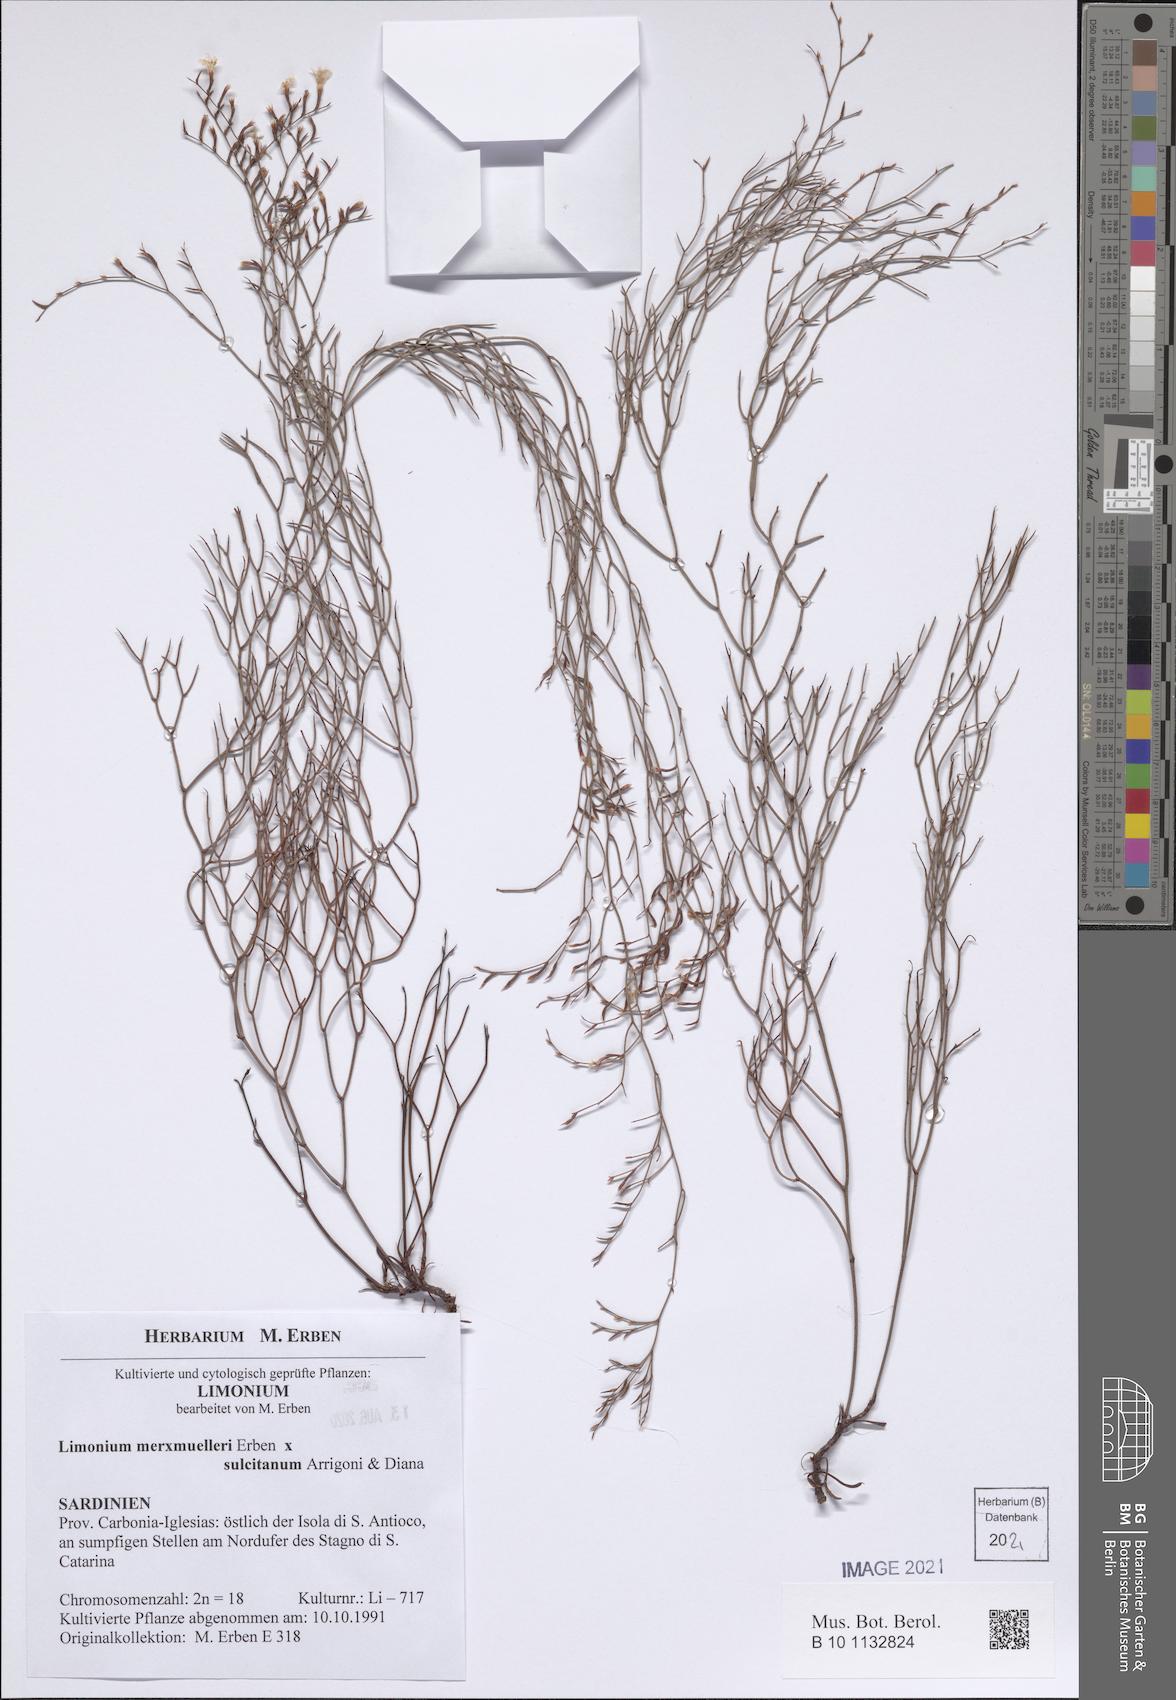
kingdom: Plantae
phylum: Tracheophyta
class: Magnoliopsida
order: Caryophyllales
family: Plumbaginaceae
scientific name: Plumbaginaceae
